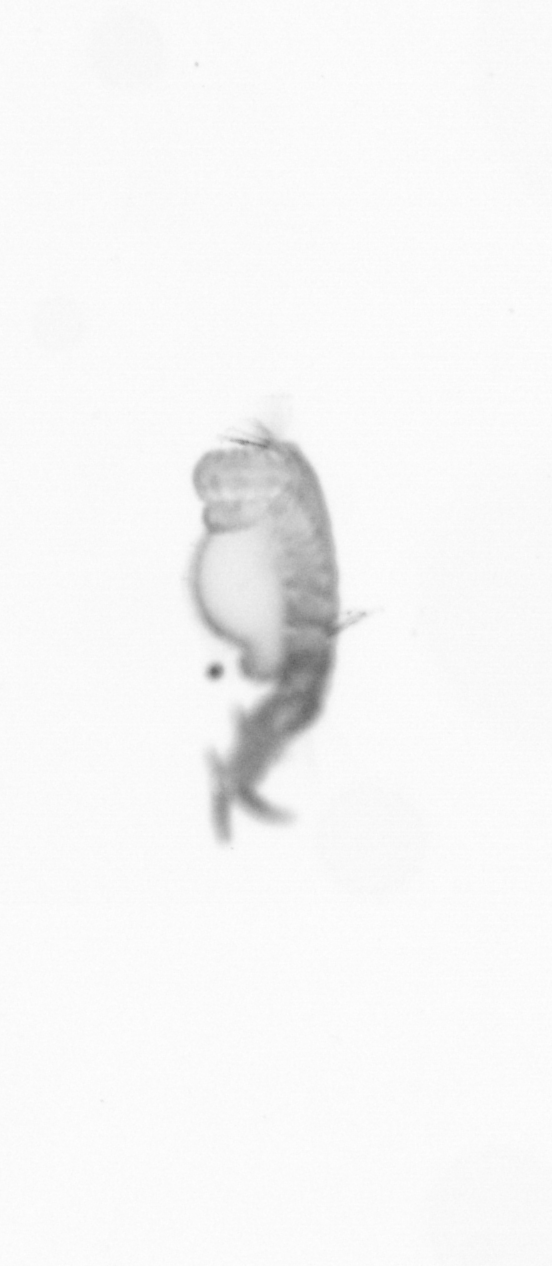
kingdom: Animalia
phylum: Annelida
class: Polychaeta
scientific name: Polychaeta
